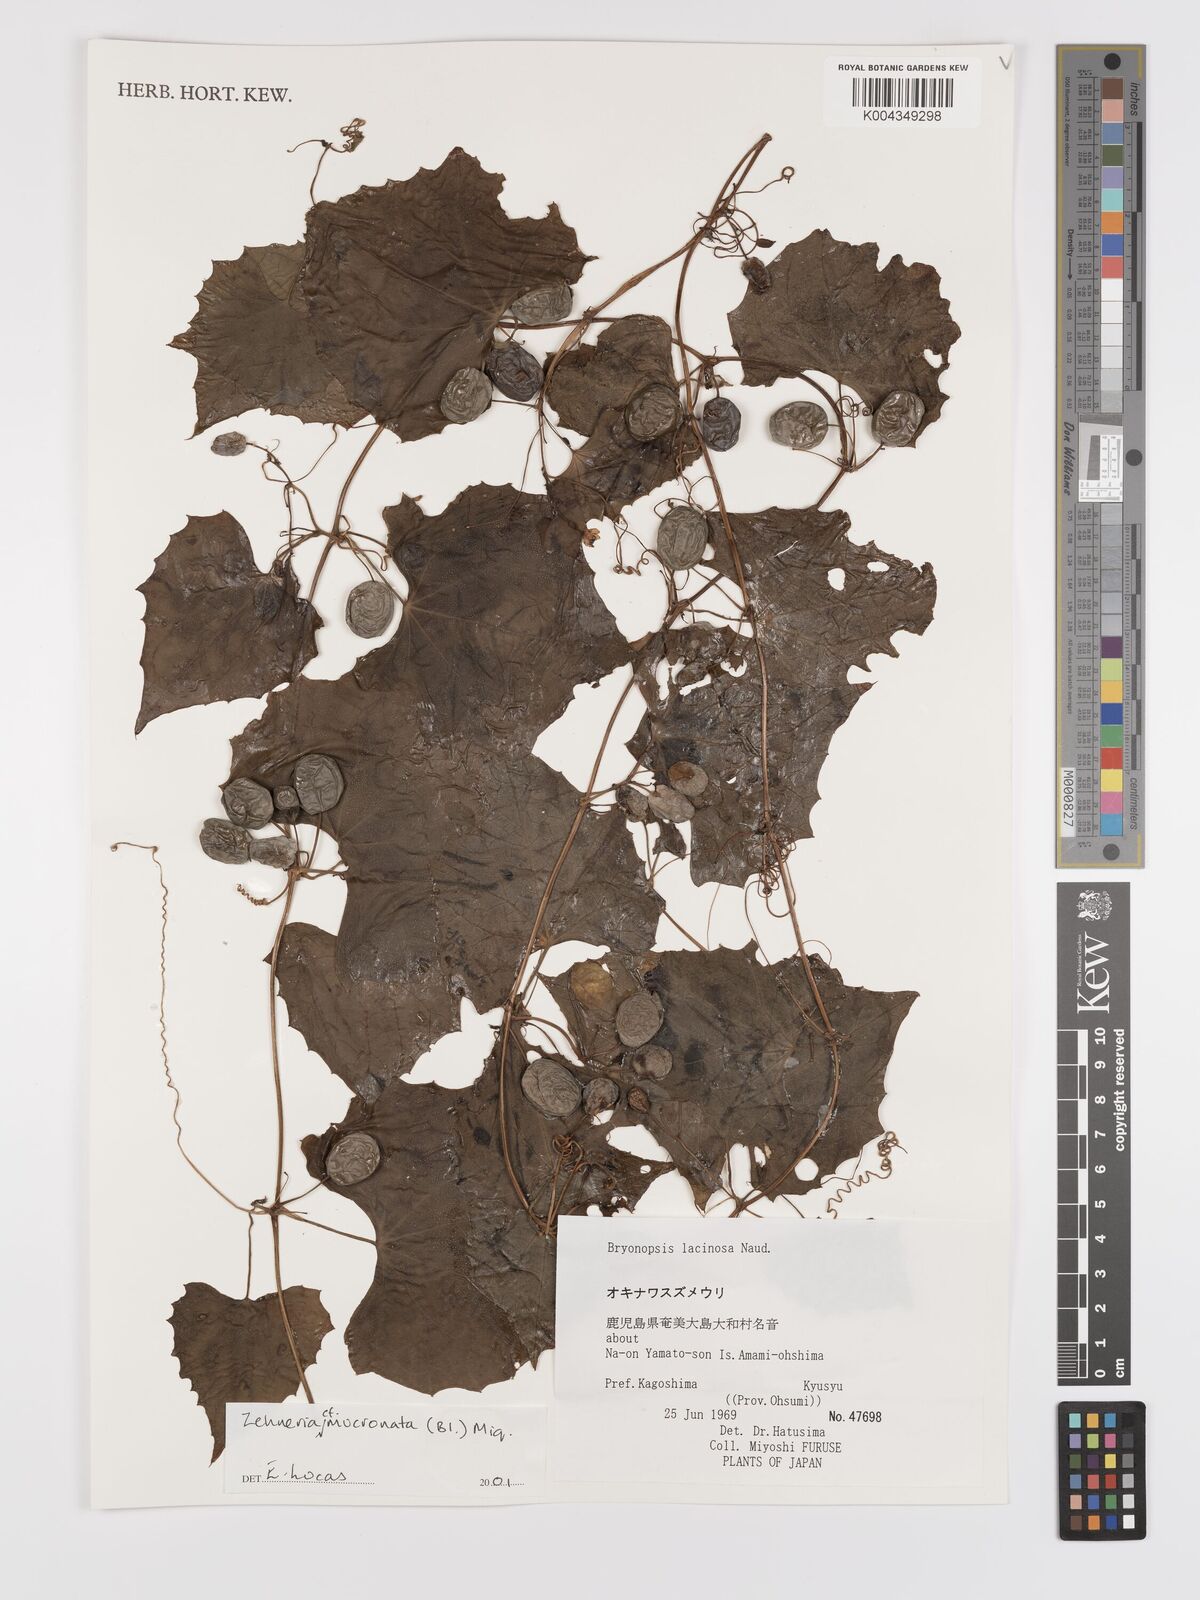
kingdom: Plantae
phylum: Tracheophyta
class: Magnoliopsida
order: Cucurbitales
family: Cucurbitaceae
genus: Zehneria
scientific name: Zehneria mucronata
